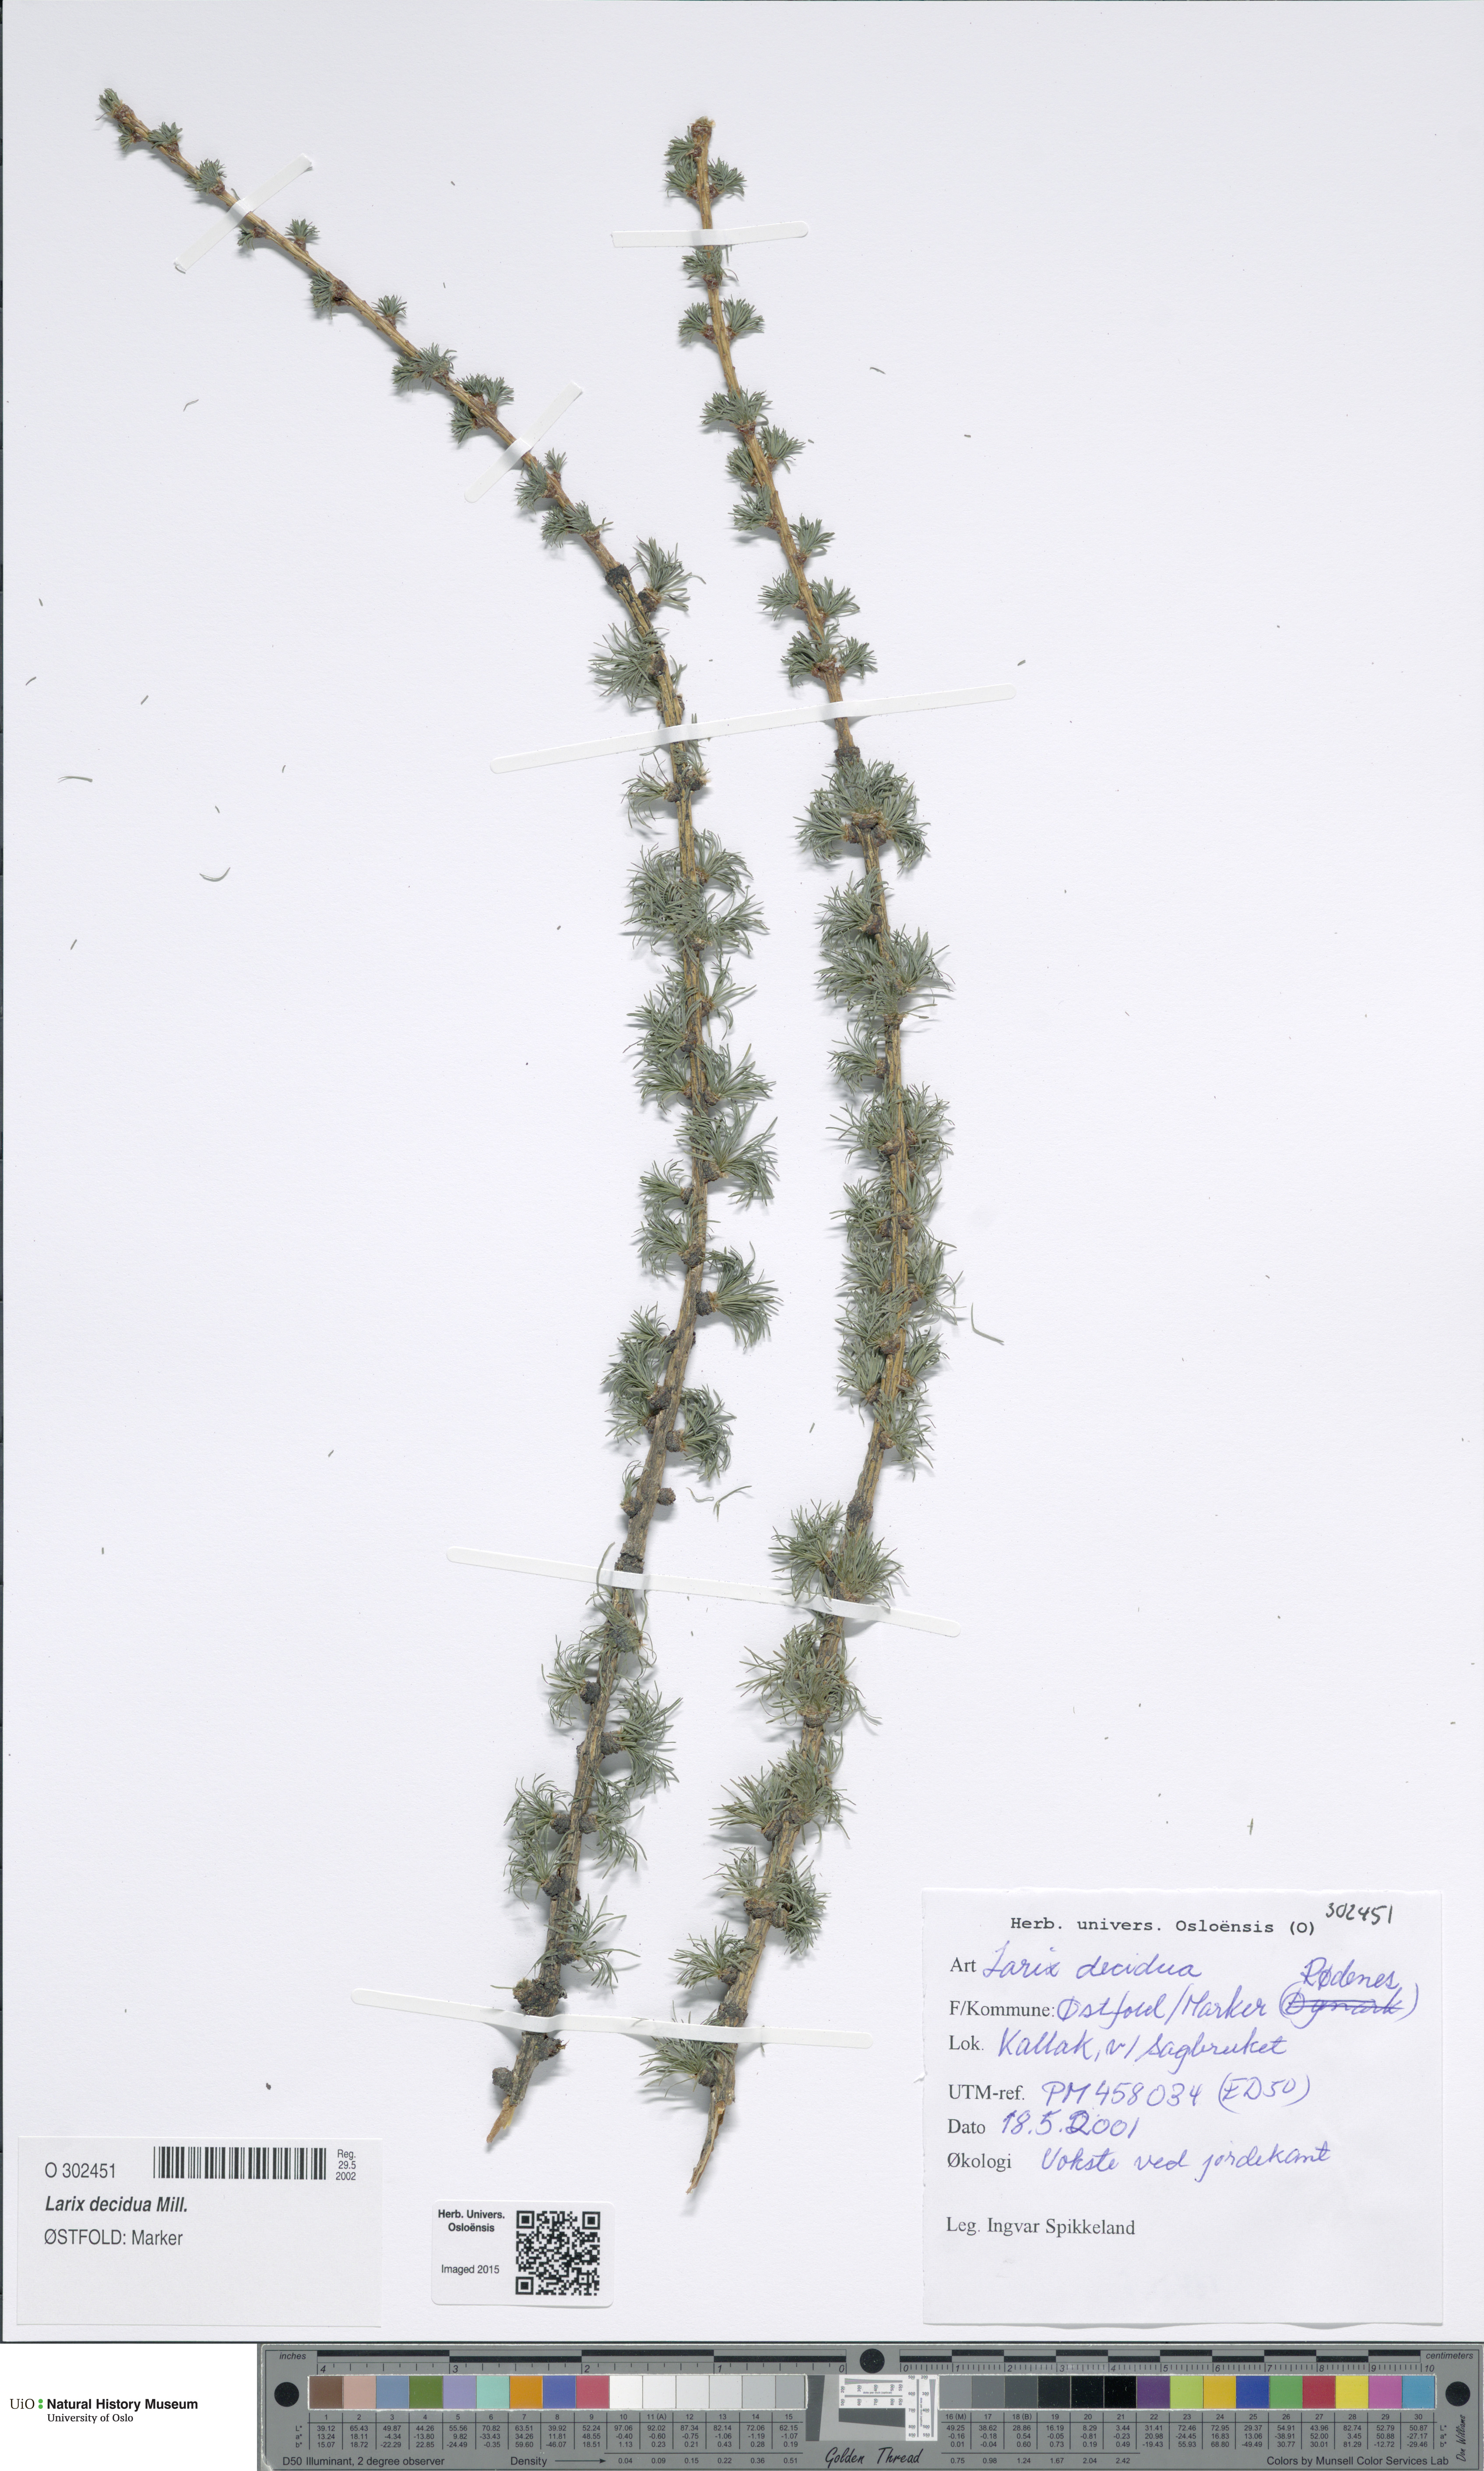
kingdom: Plantae
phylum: Tracheophyta
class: Pinopsida
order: Pinales
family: Pinaceae
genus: Larix
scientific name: Larix decidua
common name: European larch
